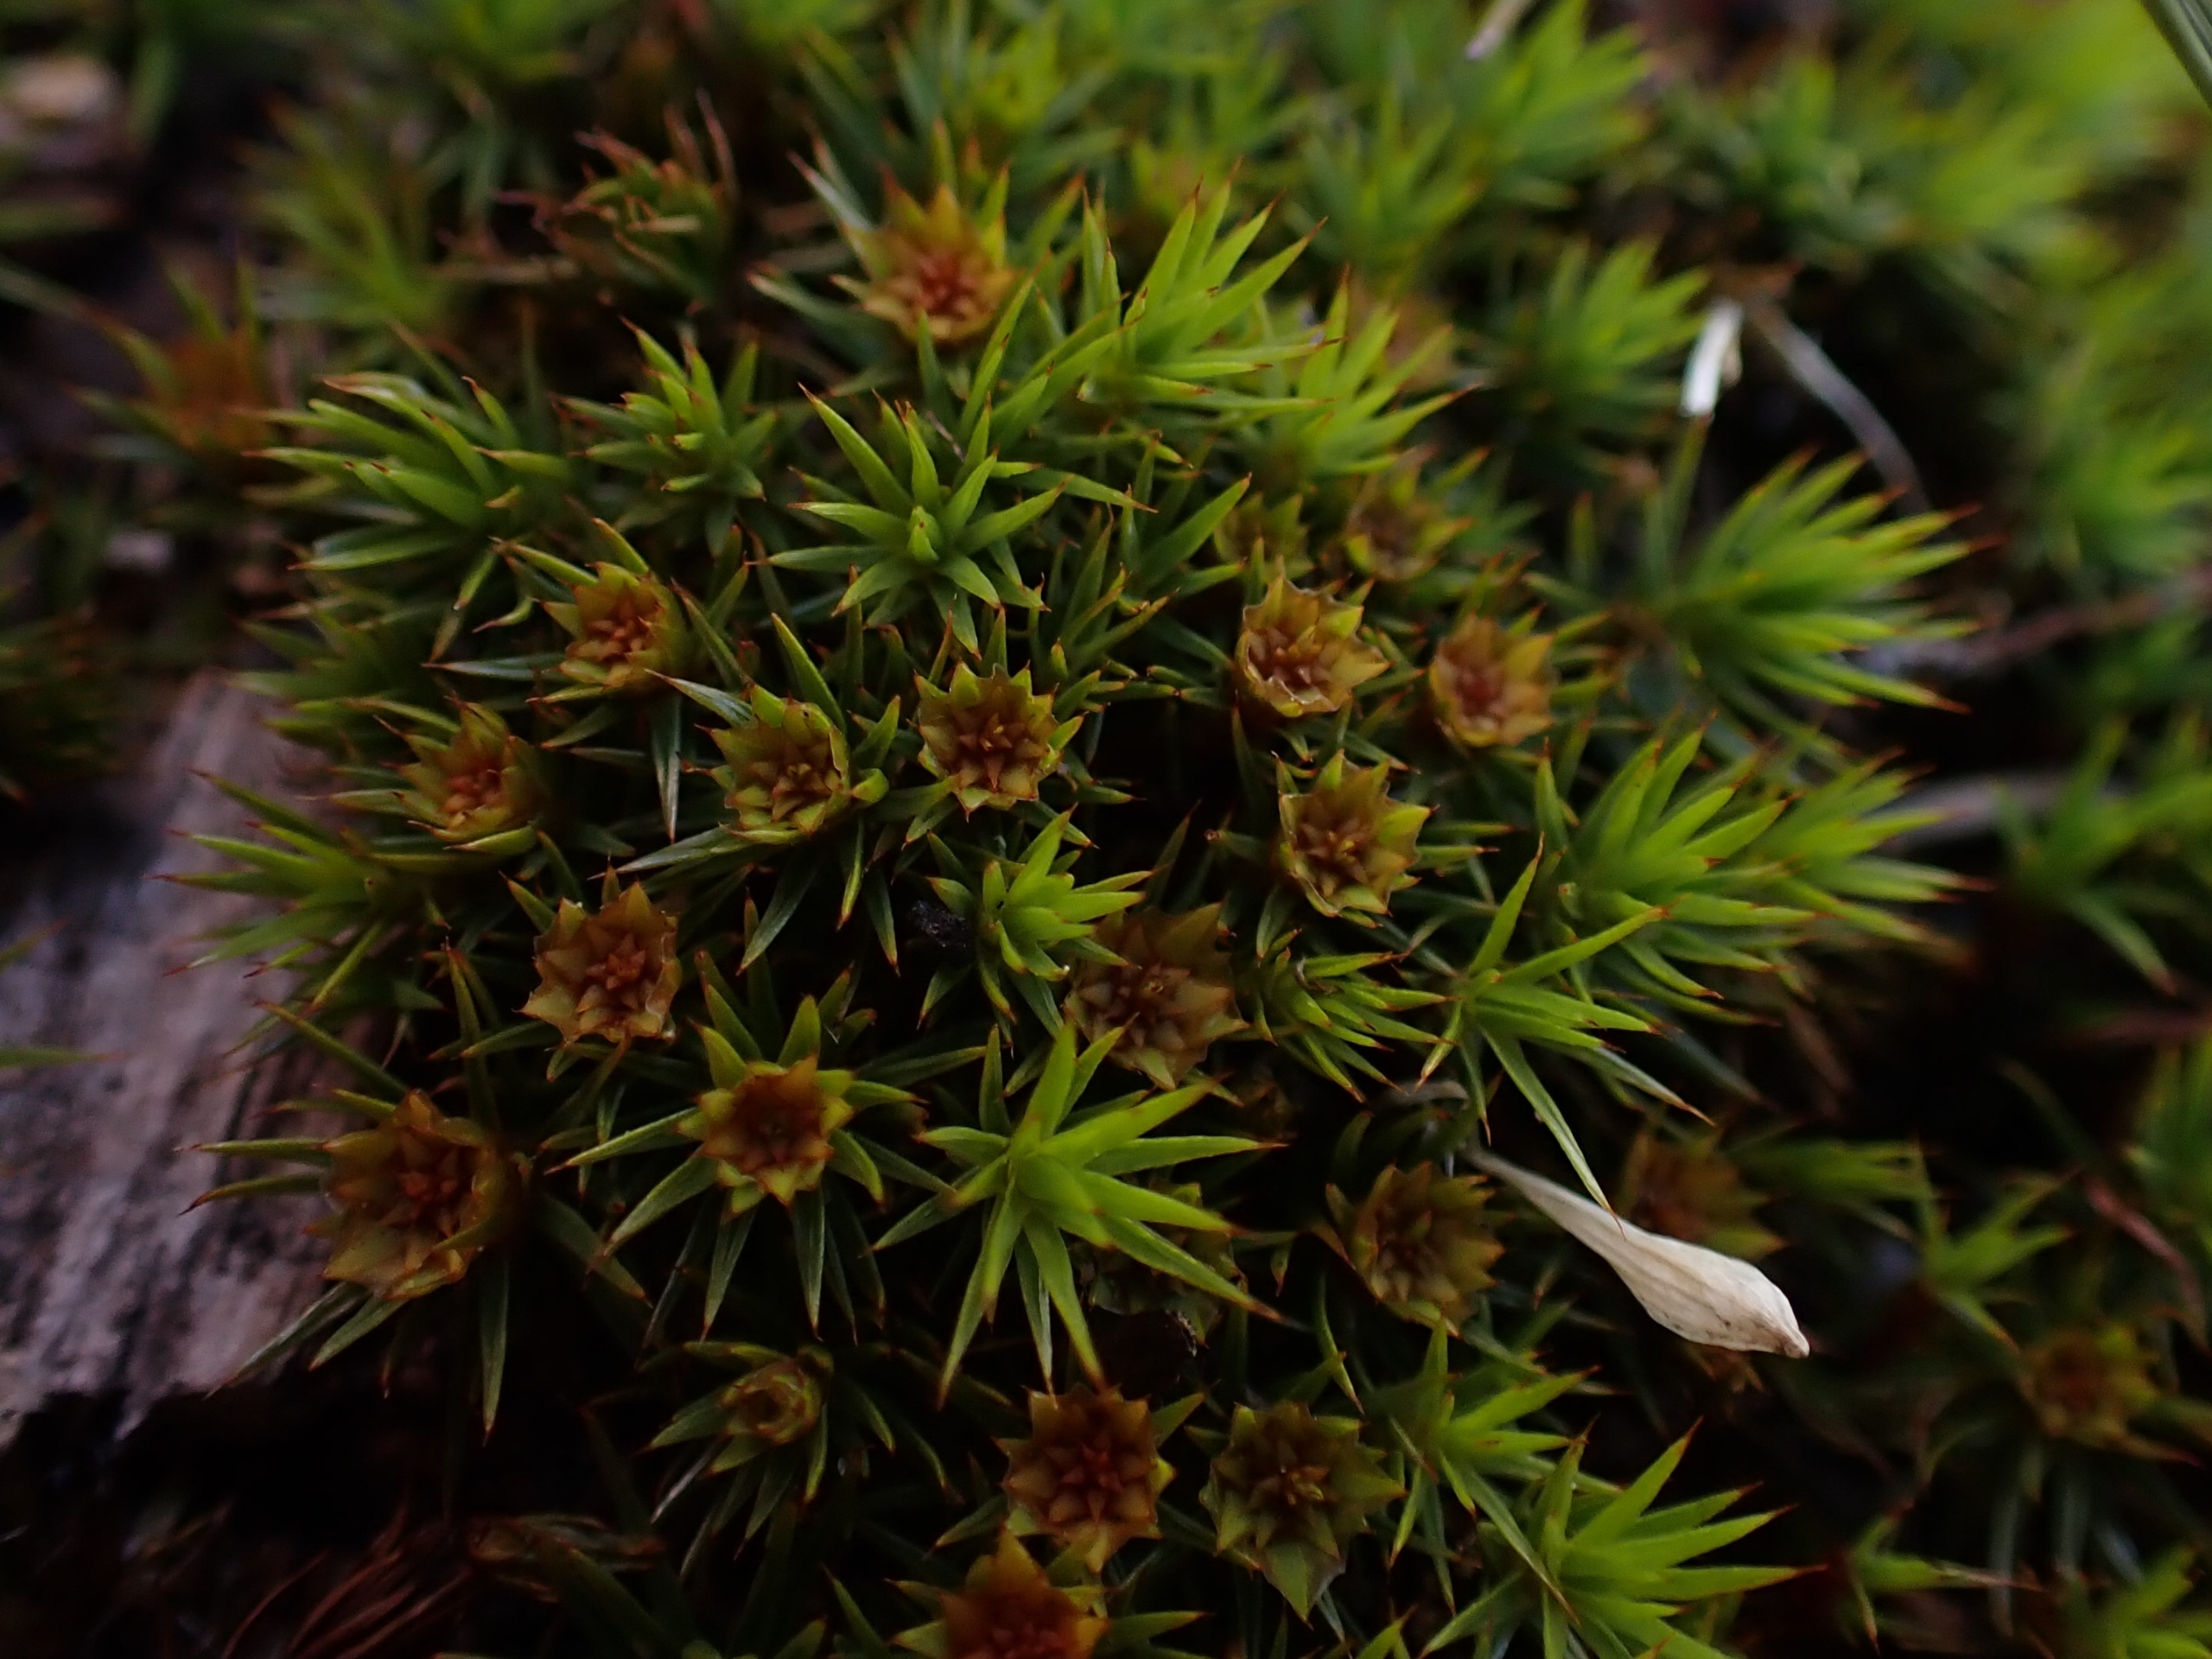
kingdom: Plantae
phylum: Bryophyta
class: Polytrichopsida
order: Polytrichales
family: Polytrichaceae
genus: Polytrichum
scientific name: Polytrichum juniperinum
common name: Ene-jomfruhår
